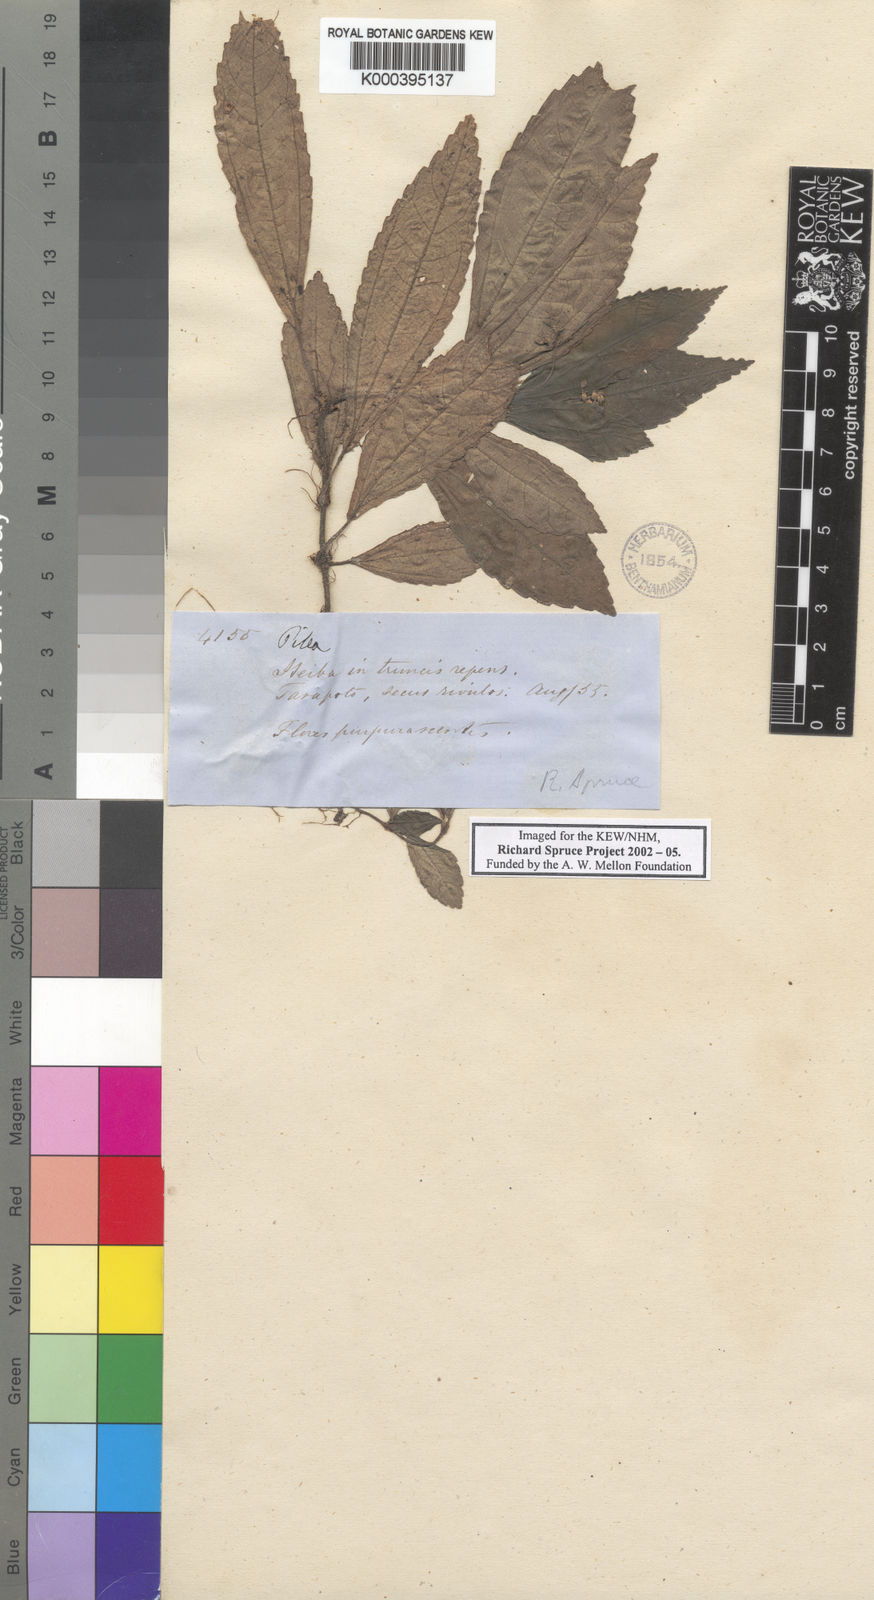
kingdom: Plantae
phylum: Tracheophyta
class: Magnoliopsida
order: Rosales
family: Urticaceae
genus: Pilea
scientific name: Pilea submissa
